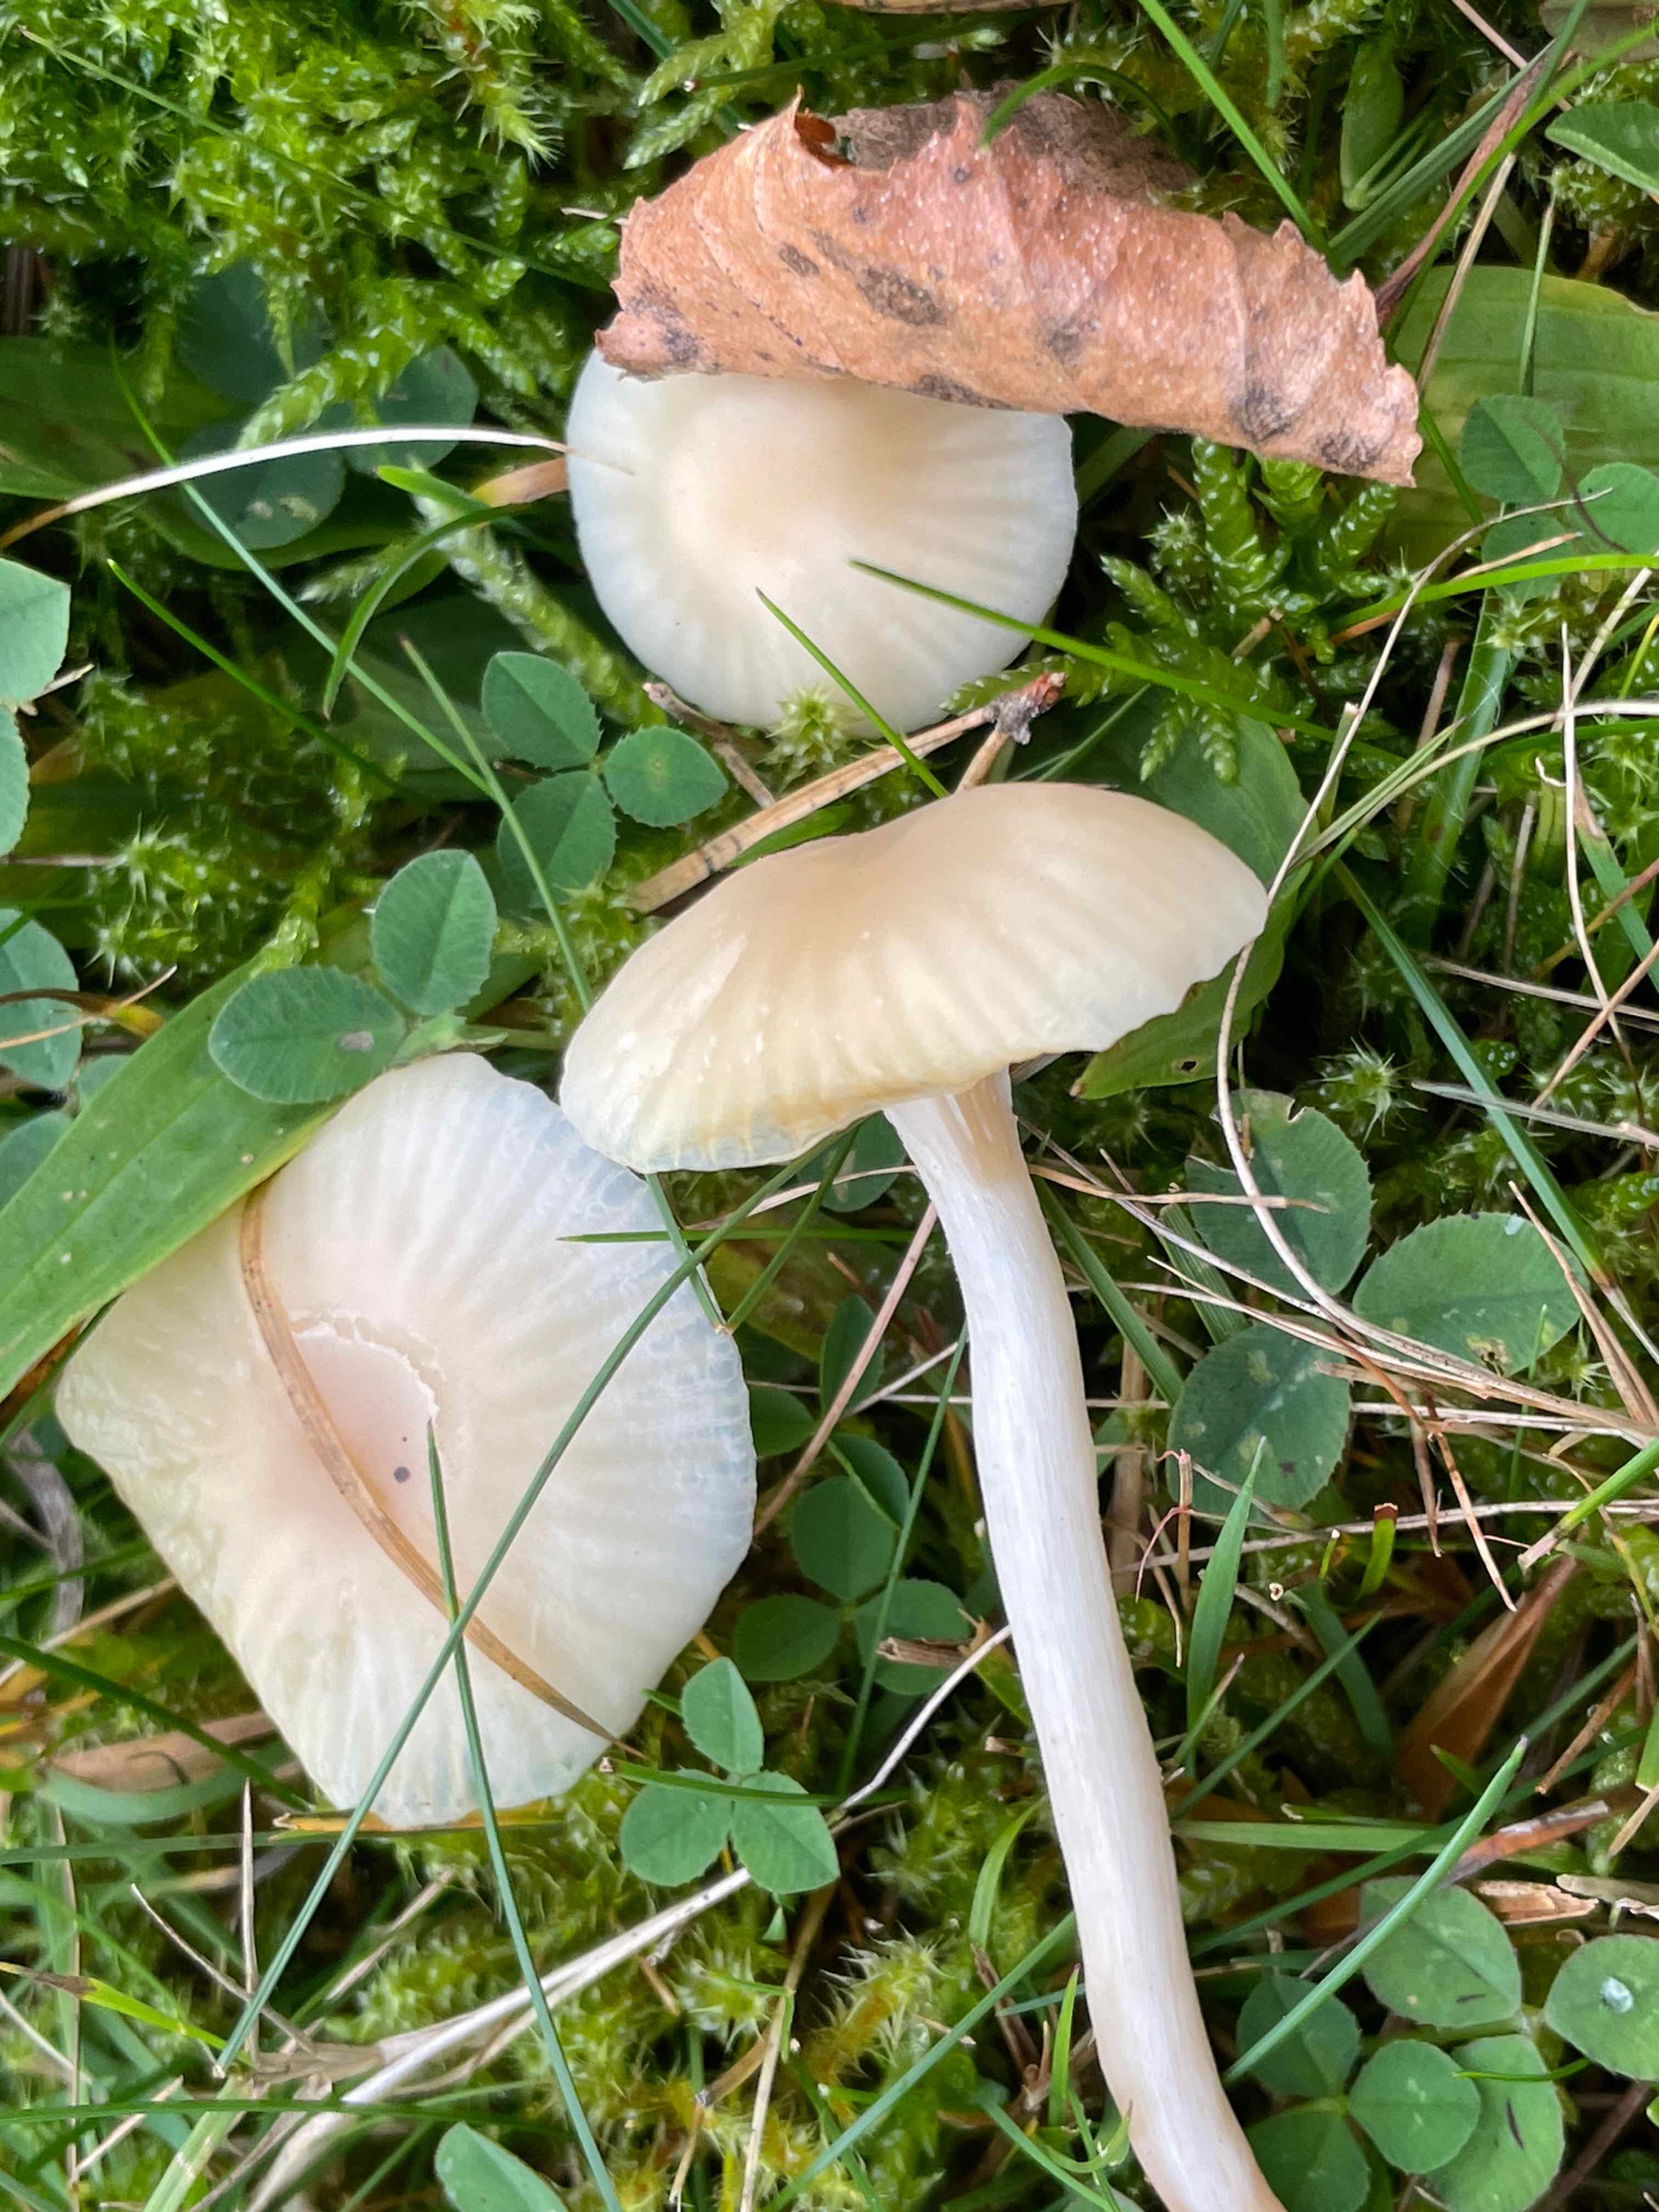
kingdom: Fungi
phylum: Basidiomycota
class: Agaricomycetes
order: Agaricales
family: Hygrophoraceae
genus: Cuphophyllus
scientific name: Cuphophyllus
